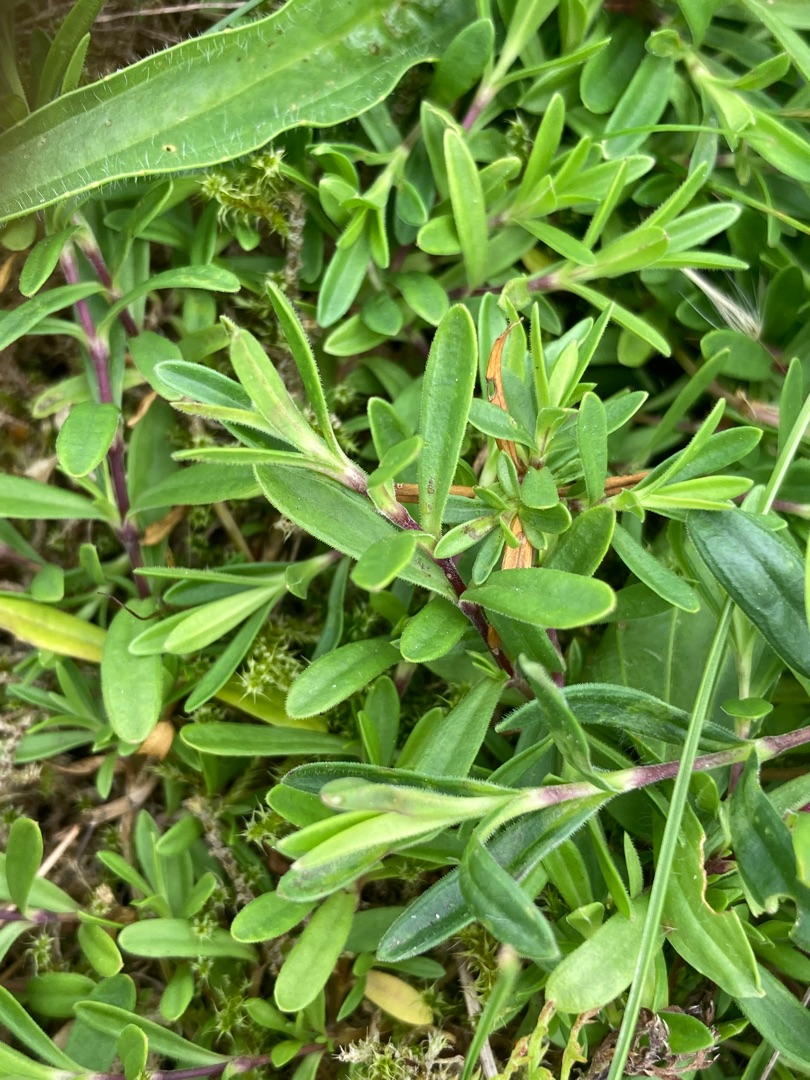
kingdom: Plantae
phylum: Tracheophyta
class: Magnoliopsida
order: Caryophyllales
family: Caryophyllaceae
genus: Dianthus
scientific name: Dianthus deltoides
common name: Bakke-nellike
